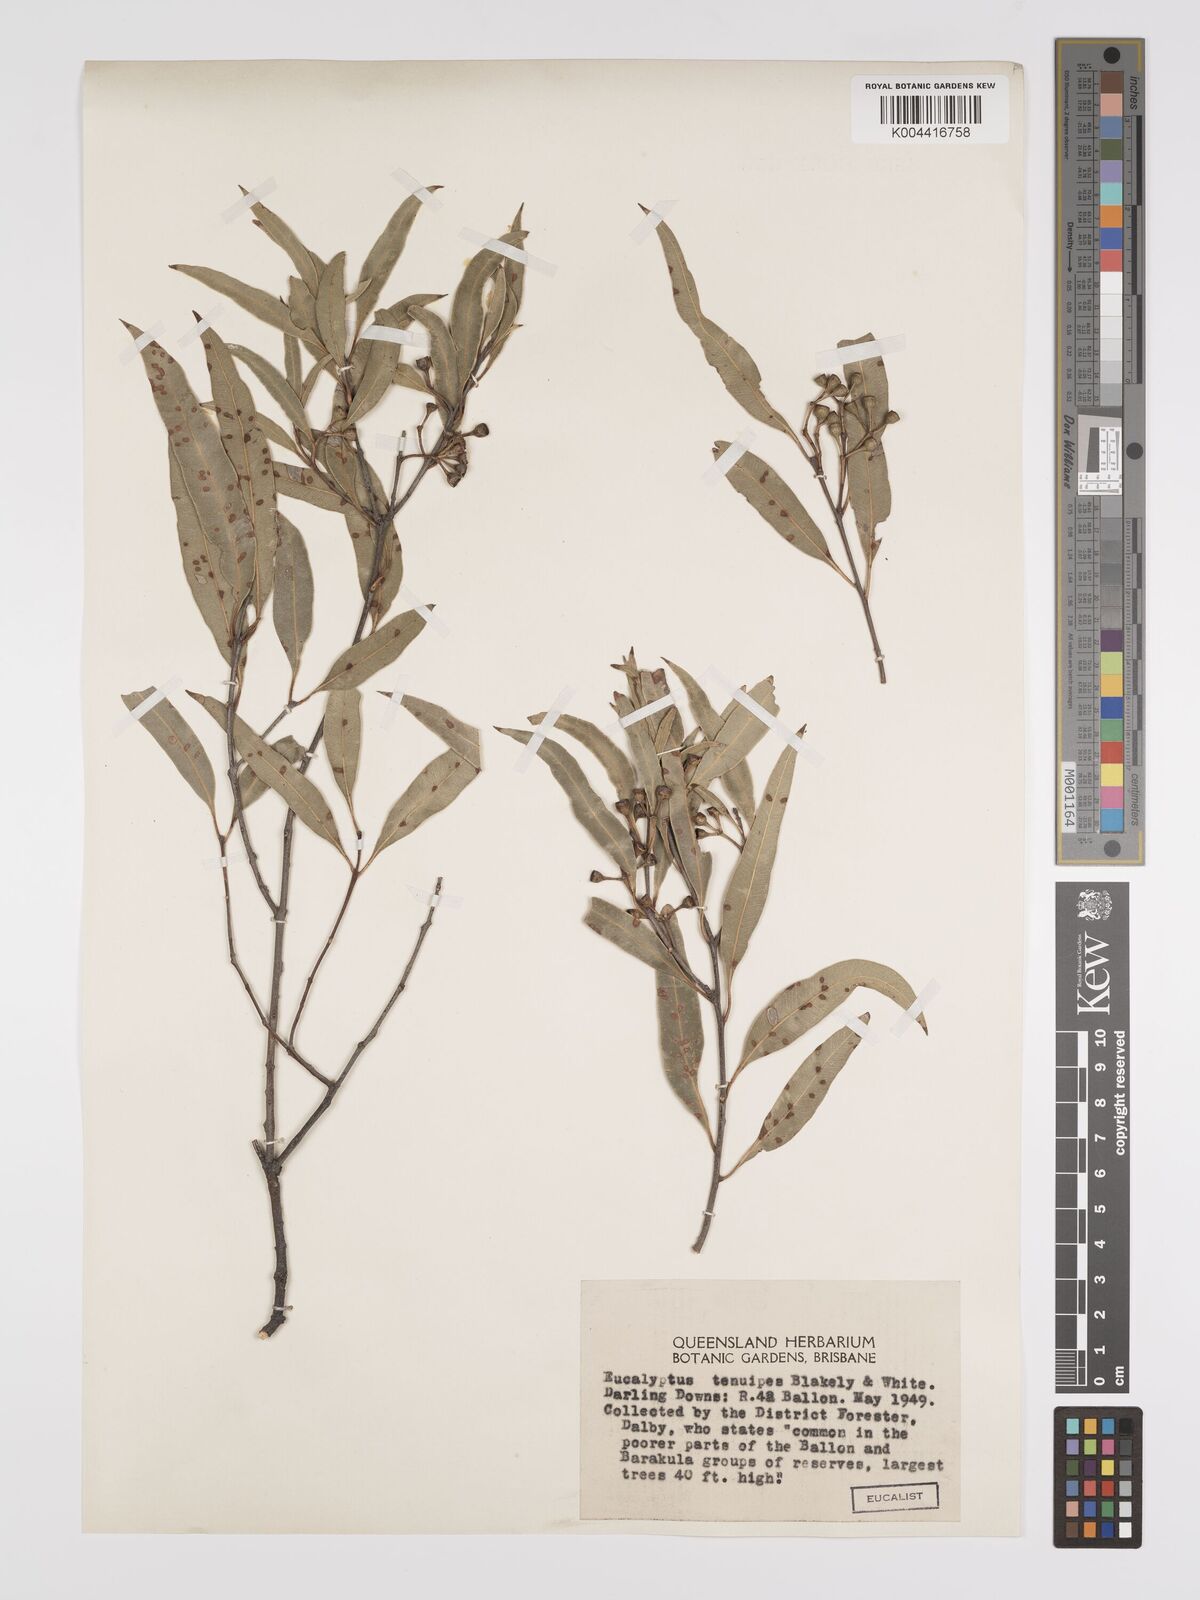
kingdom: Plantae
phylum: Tracheophyta
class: Magnoliopsida
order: Myrtales
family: Myrtaceae
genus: Eucalyptus
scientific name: Eucalyptus tenuipes
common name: Narrow-leaved white mahogany
